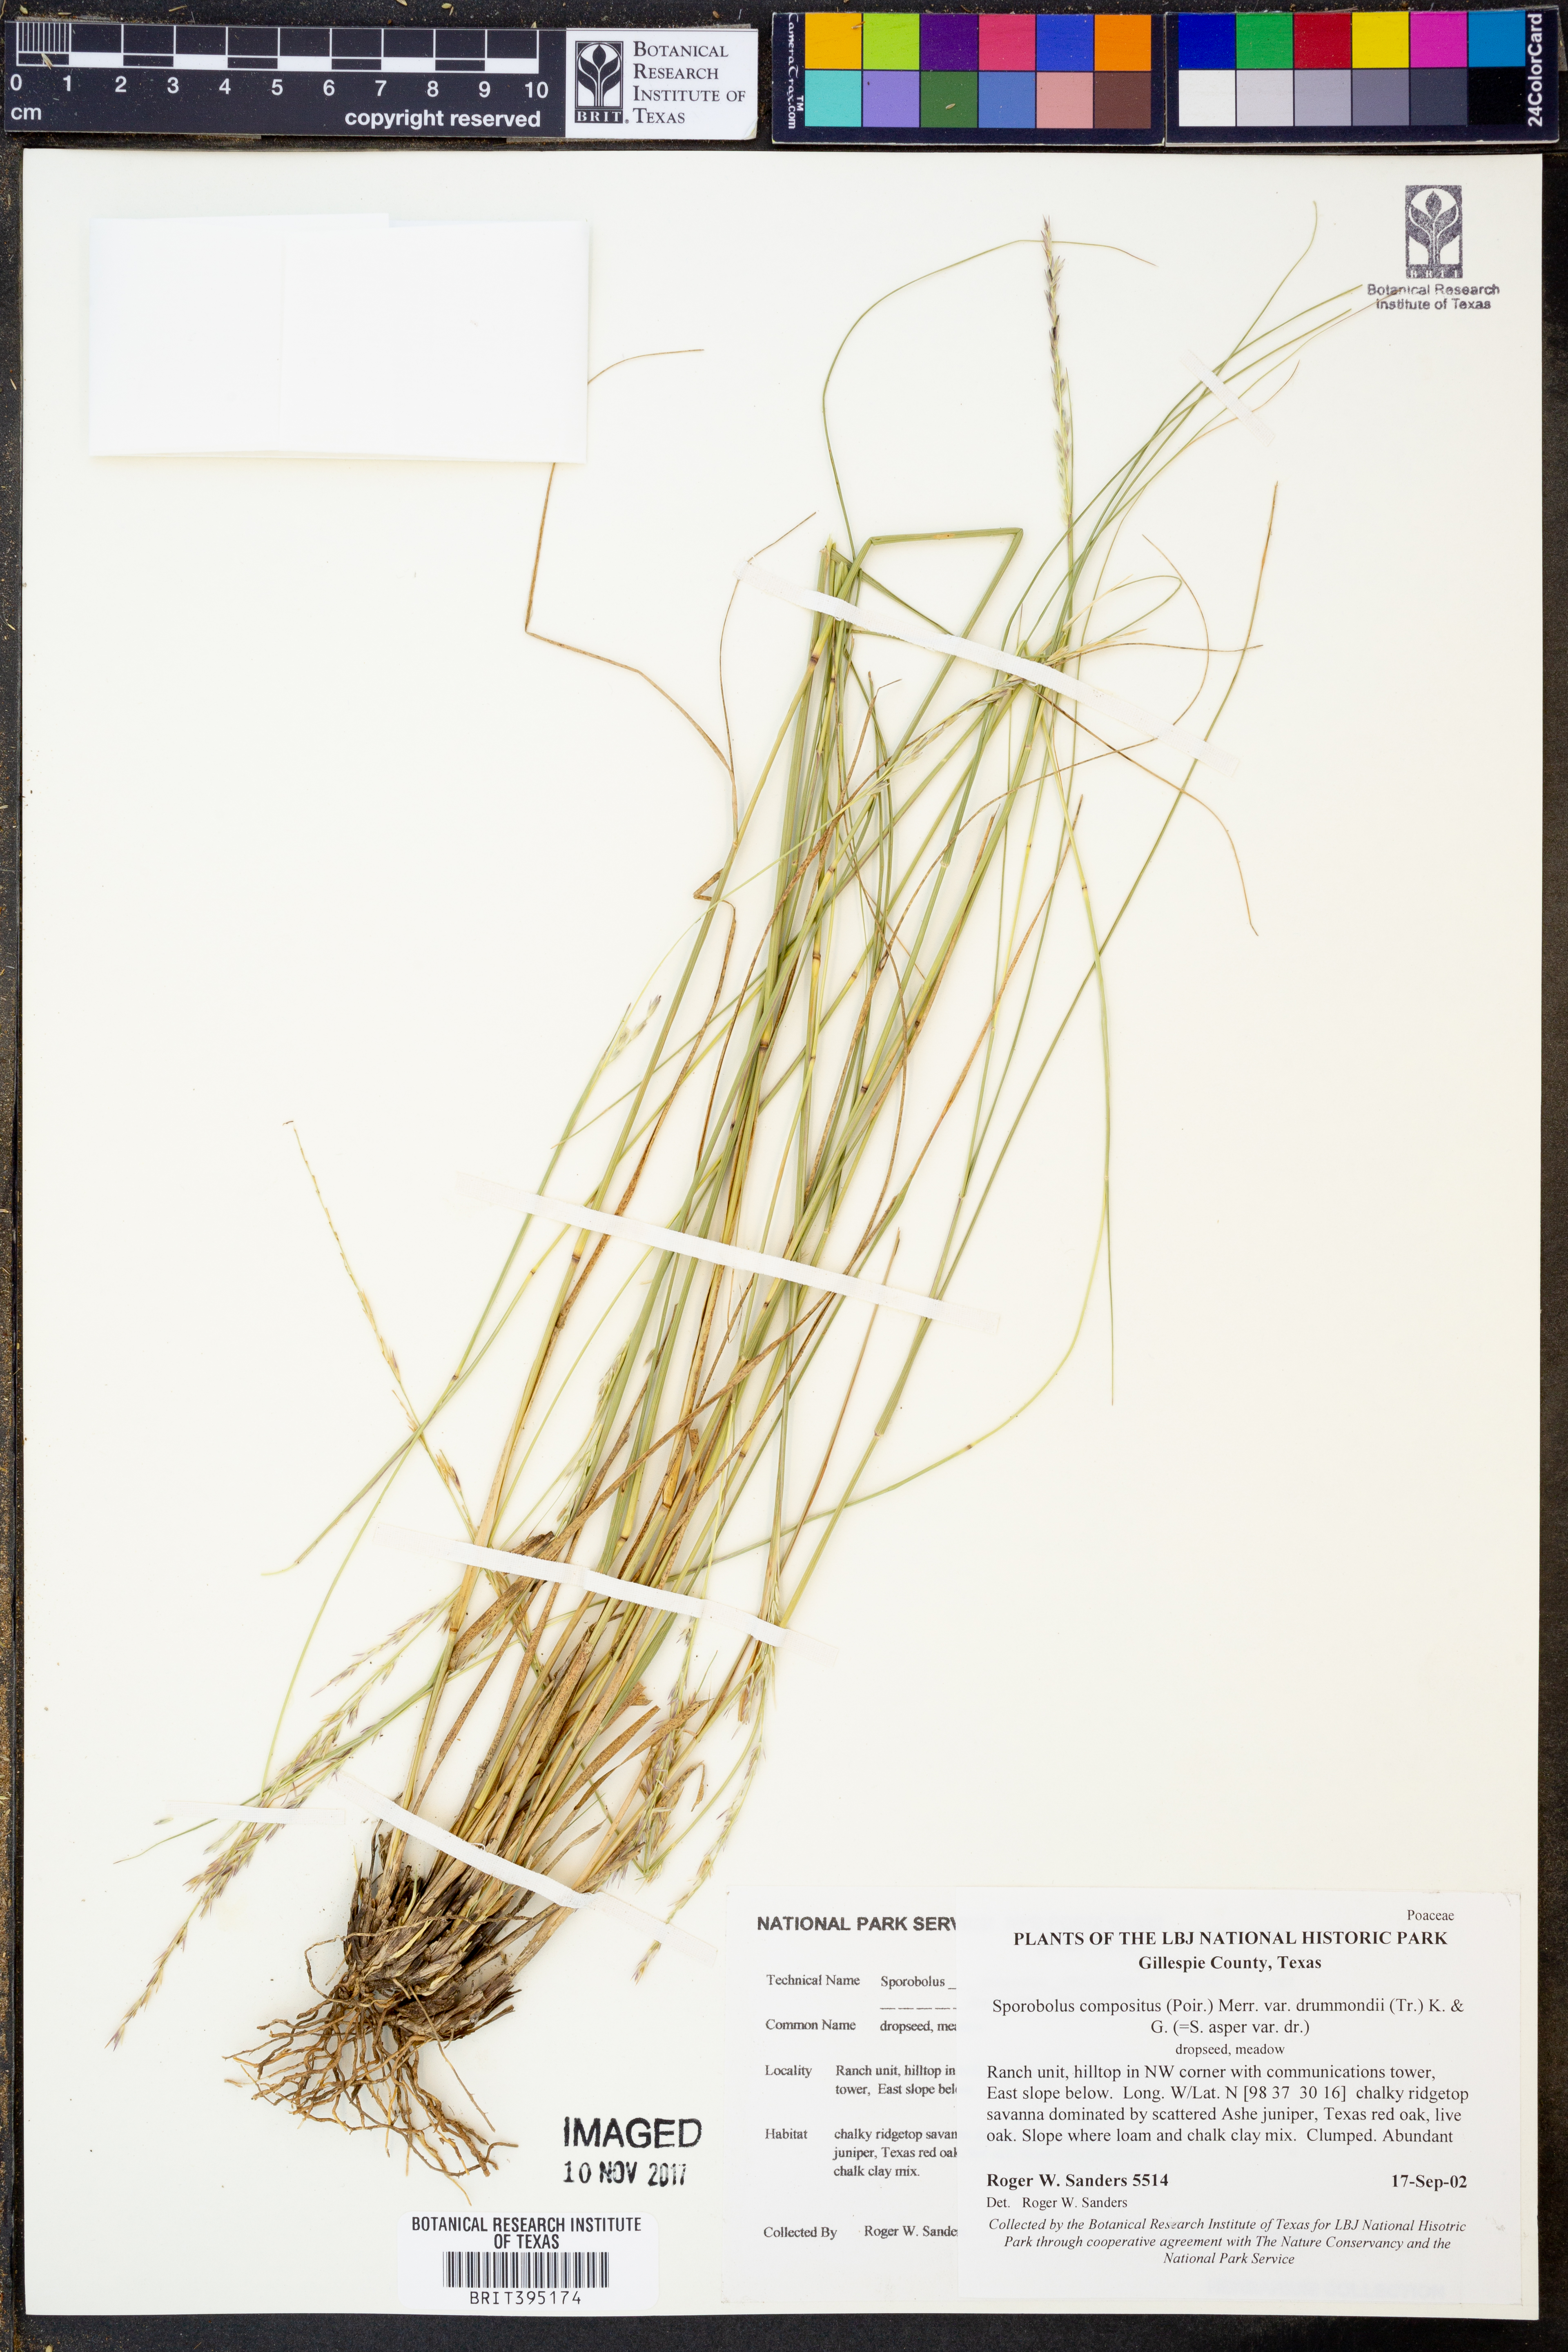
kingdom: Plantae
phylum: Tracheophyta
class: Liliopsida
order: Poales
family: Poaceae
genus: Sporobolus
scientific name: Sporobolus compositus
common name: Rough dropseed
